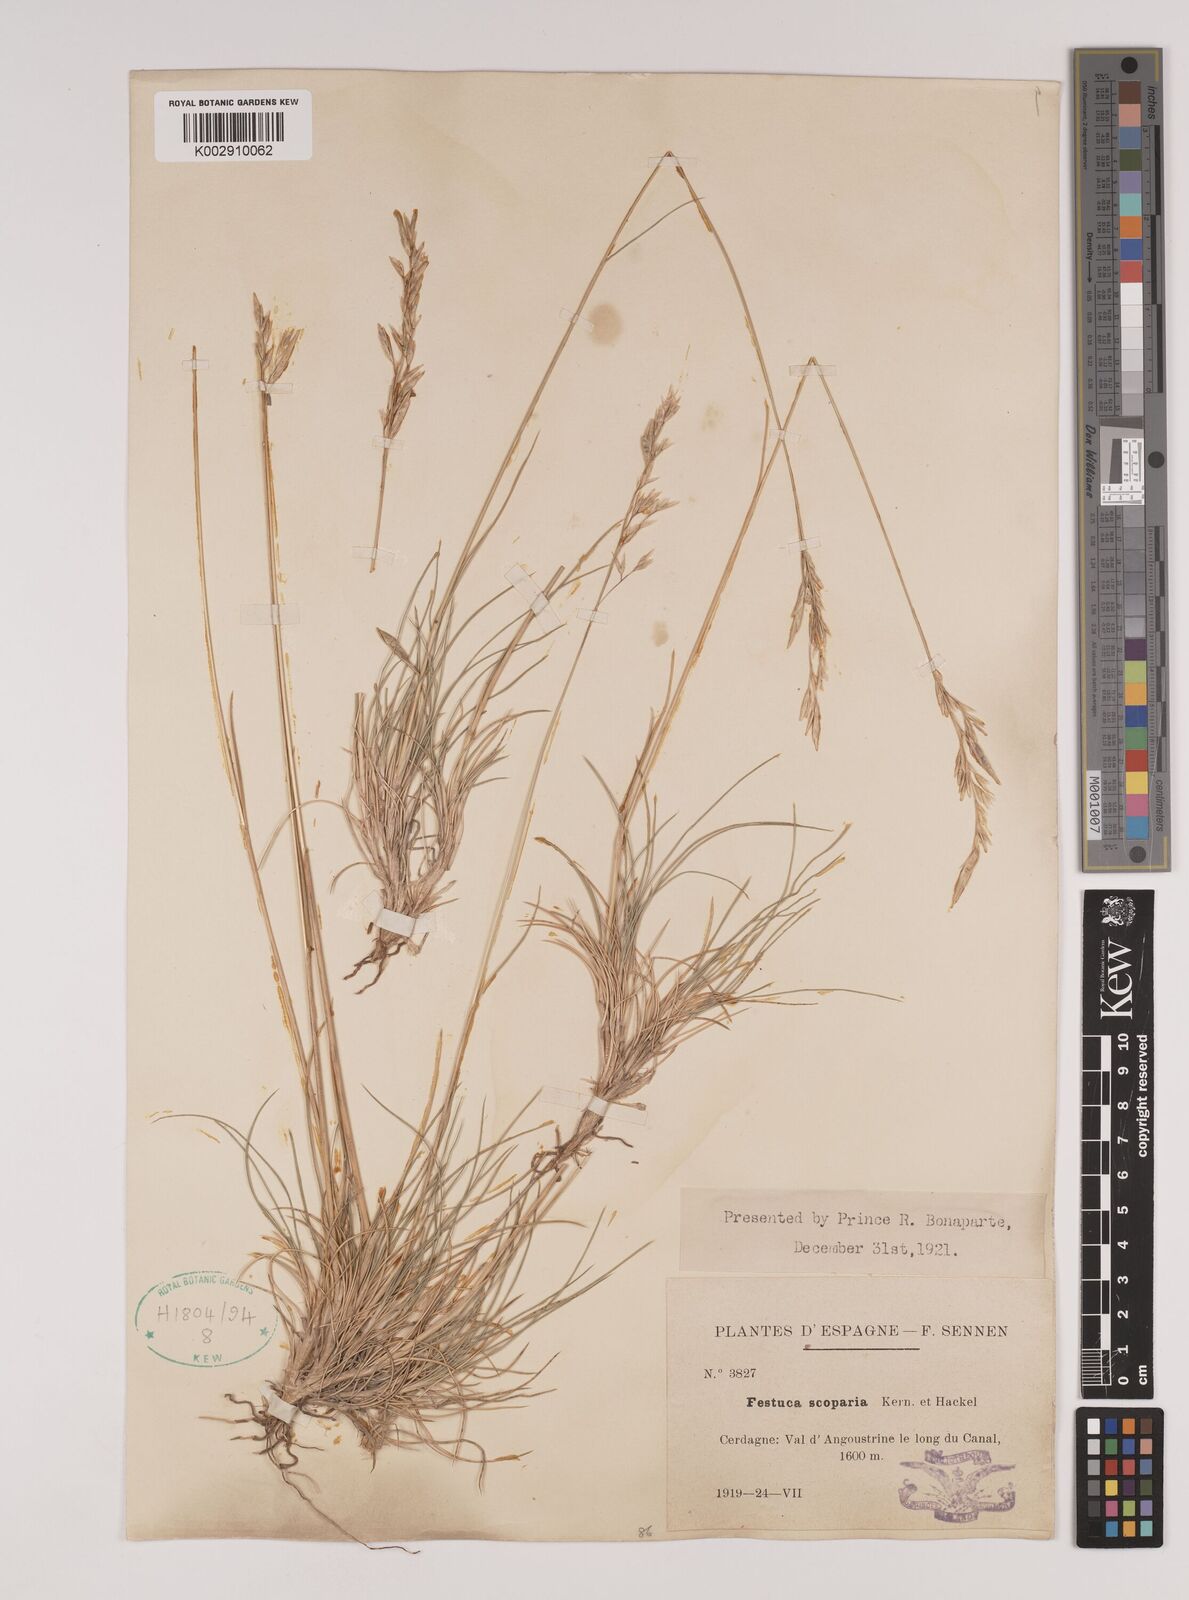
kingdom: Plantae
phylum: Tracheophyta
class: Liliopsida
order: Poales
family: Poaceae
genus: Festuca
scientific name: Festuca gautieri
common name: Spiky fescue
